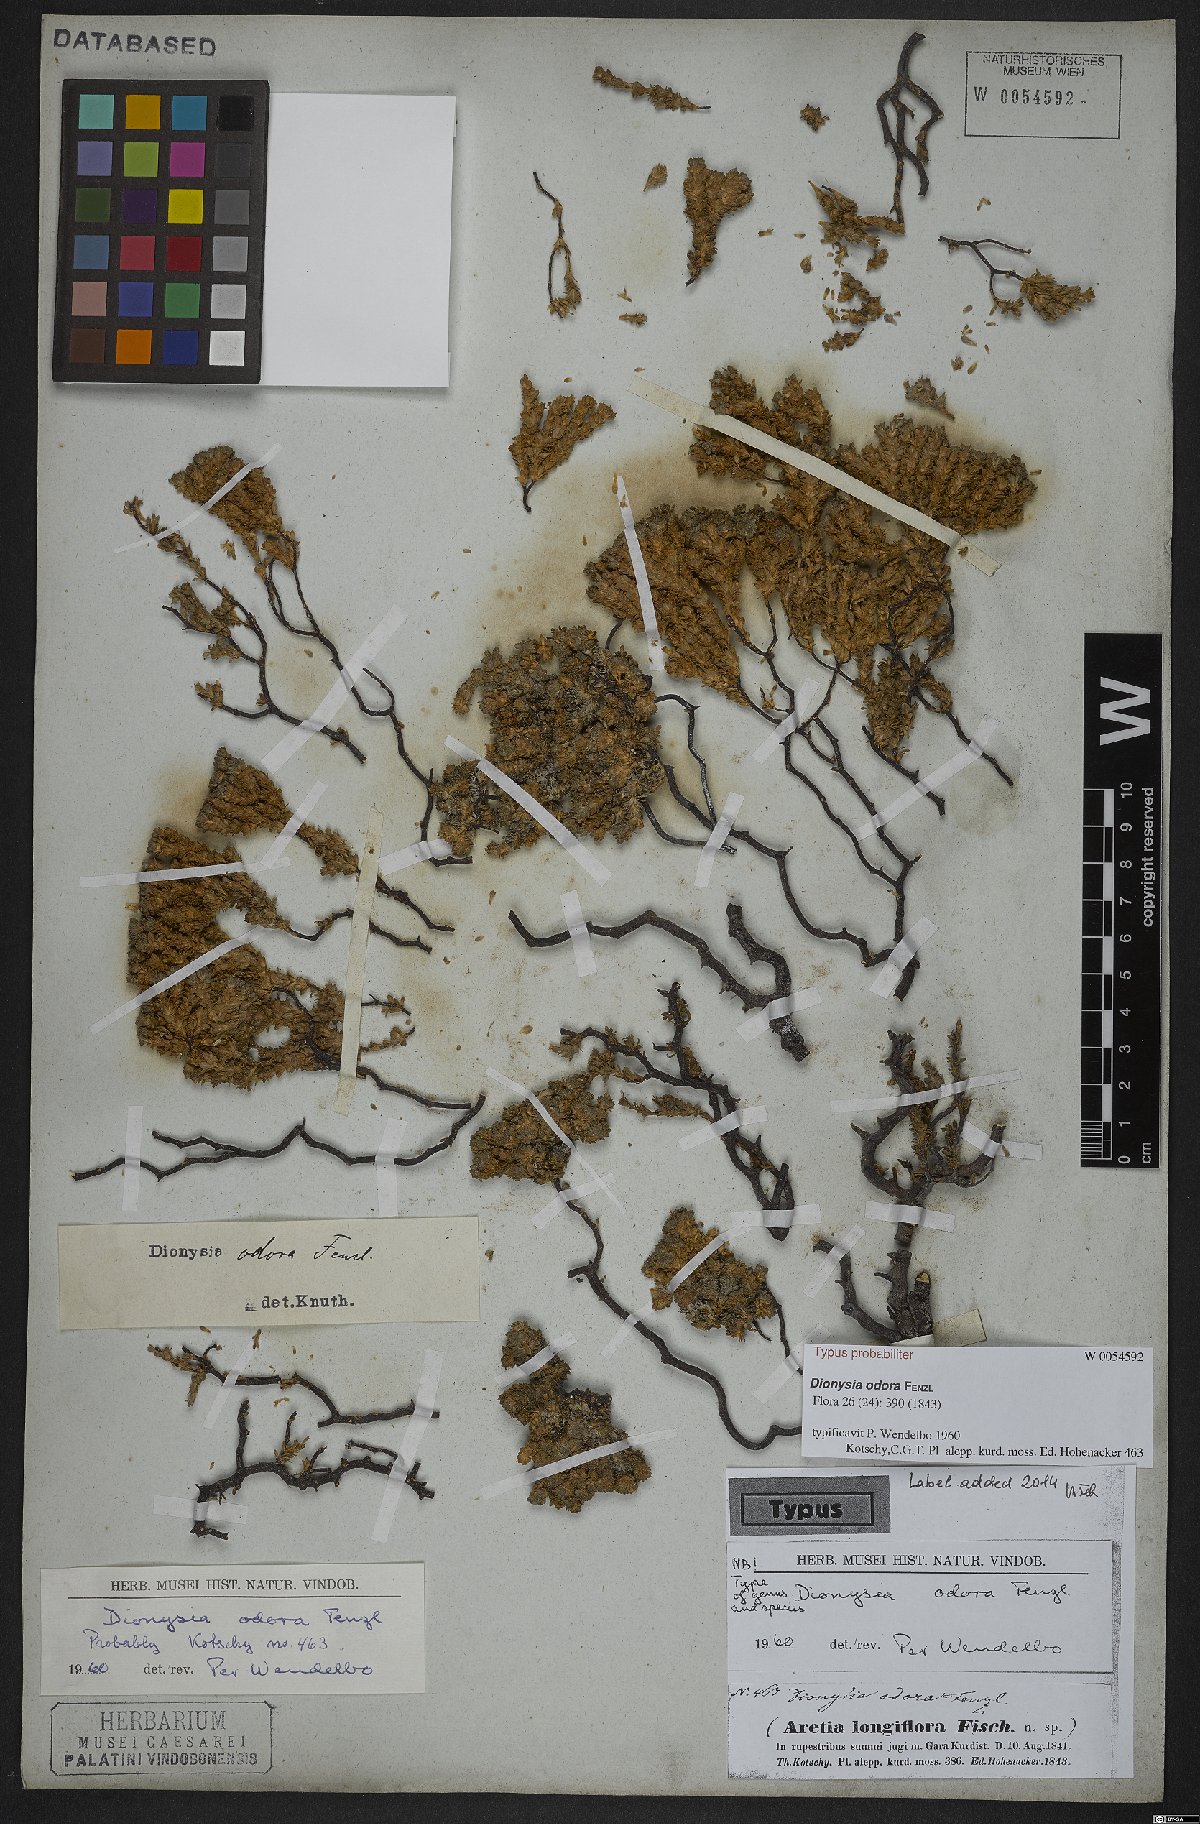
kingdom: Plantae
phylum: Tracheophyta
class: Magnoliopsida
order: Ericales
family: Primulaceae
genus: Dionysia
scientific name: Dionysia odora
